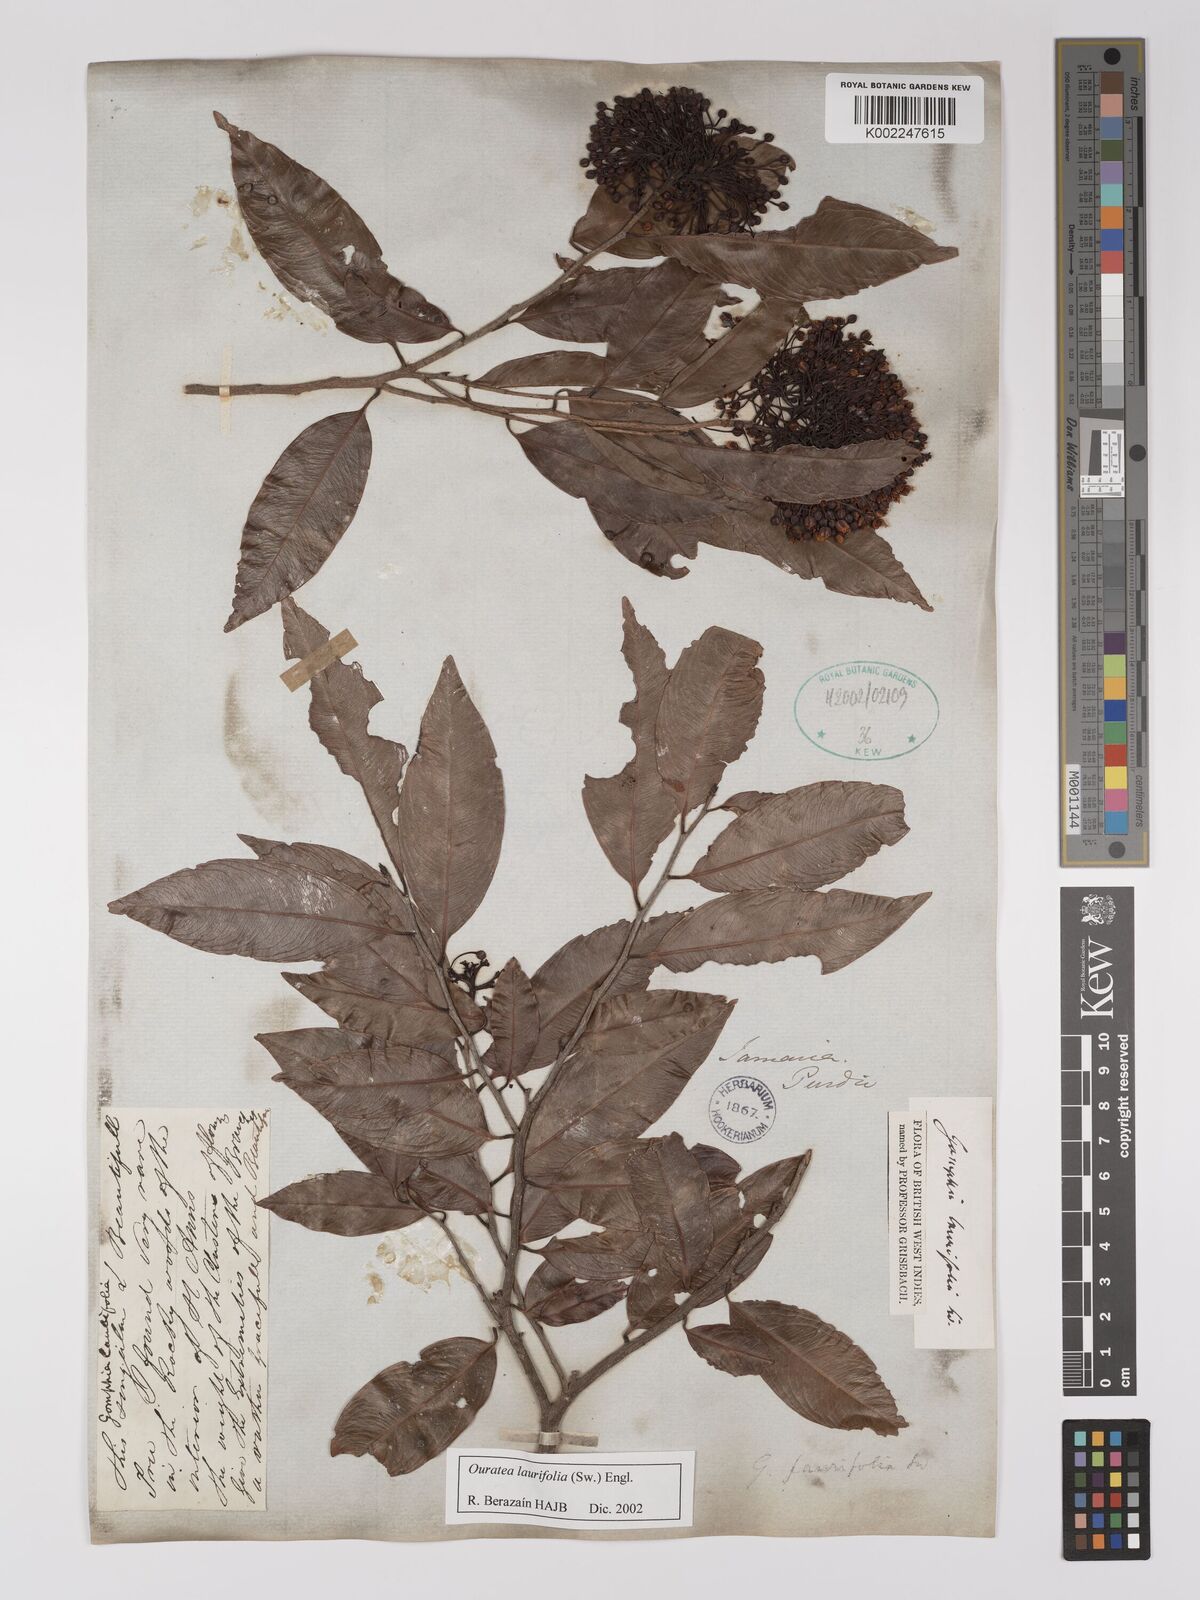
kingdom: Plantae
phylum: Tracheophyta
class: Magnoliopsida
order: Malpighiales
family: Ochnaceae
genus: Ouratea
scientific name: Ouratea laurifolia
